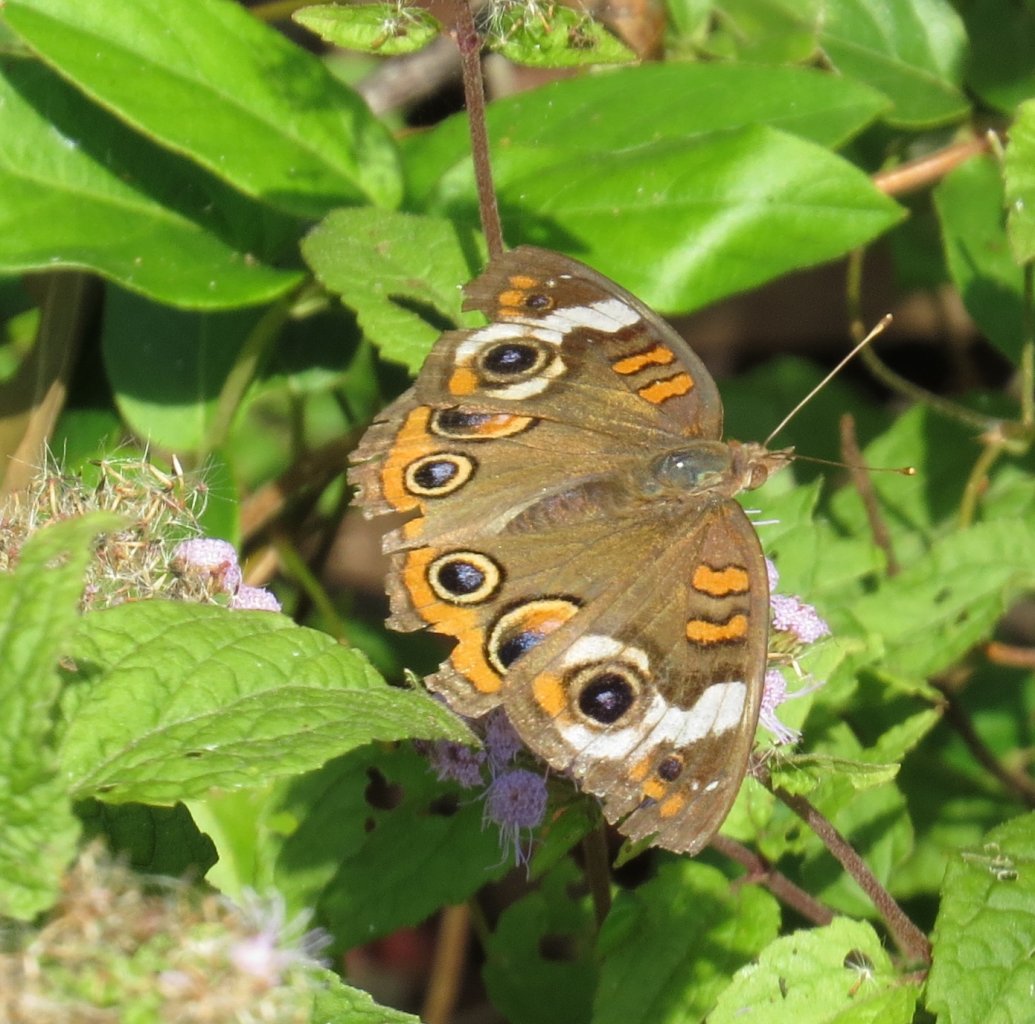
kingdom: Animalia
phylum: Arthropoda
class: Insecta
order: Lepidoptera
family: Nymphalidae
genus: Junonia
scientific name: Junonia coenia
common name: Common Buckeye
